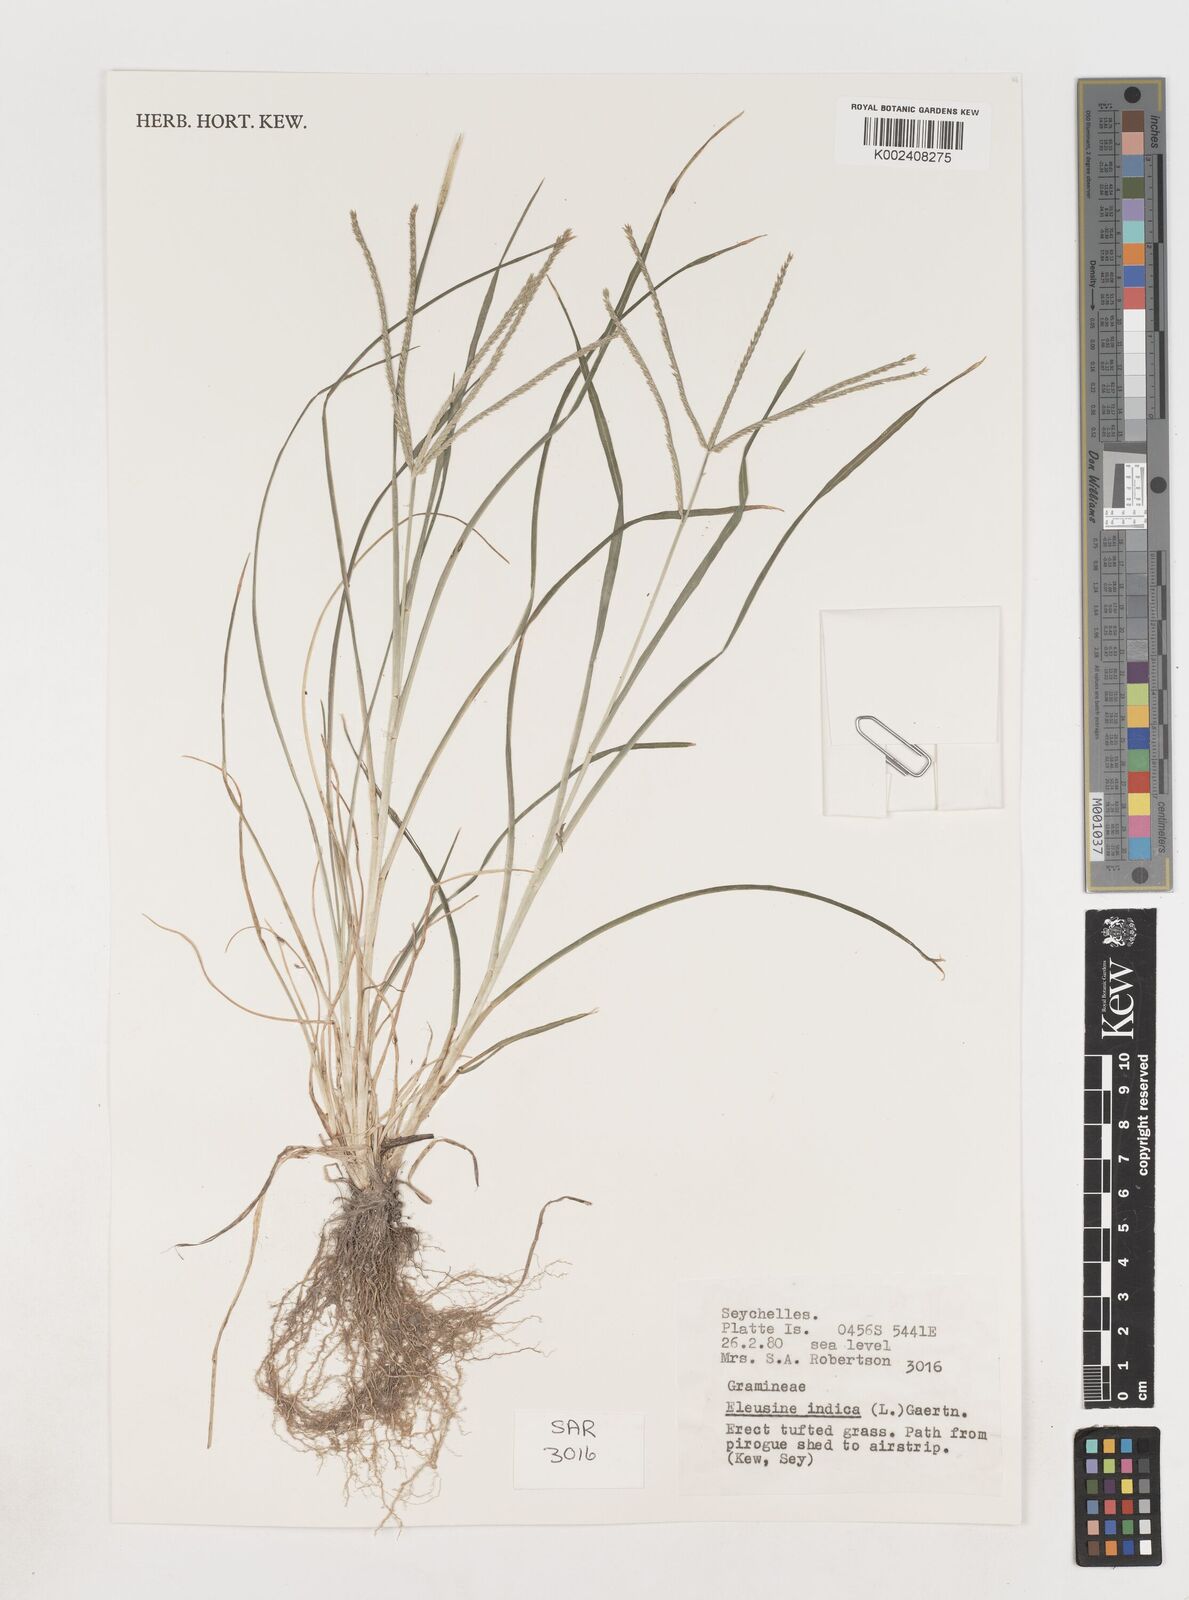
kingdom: Plantae
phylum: Tracheophyta
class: Liliopsida
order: Poales
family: Poaceae
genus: Eleusine
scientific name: Eleusine indica
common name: Yard-grass
